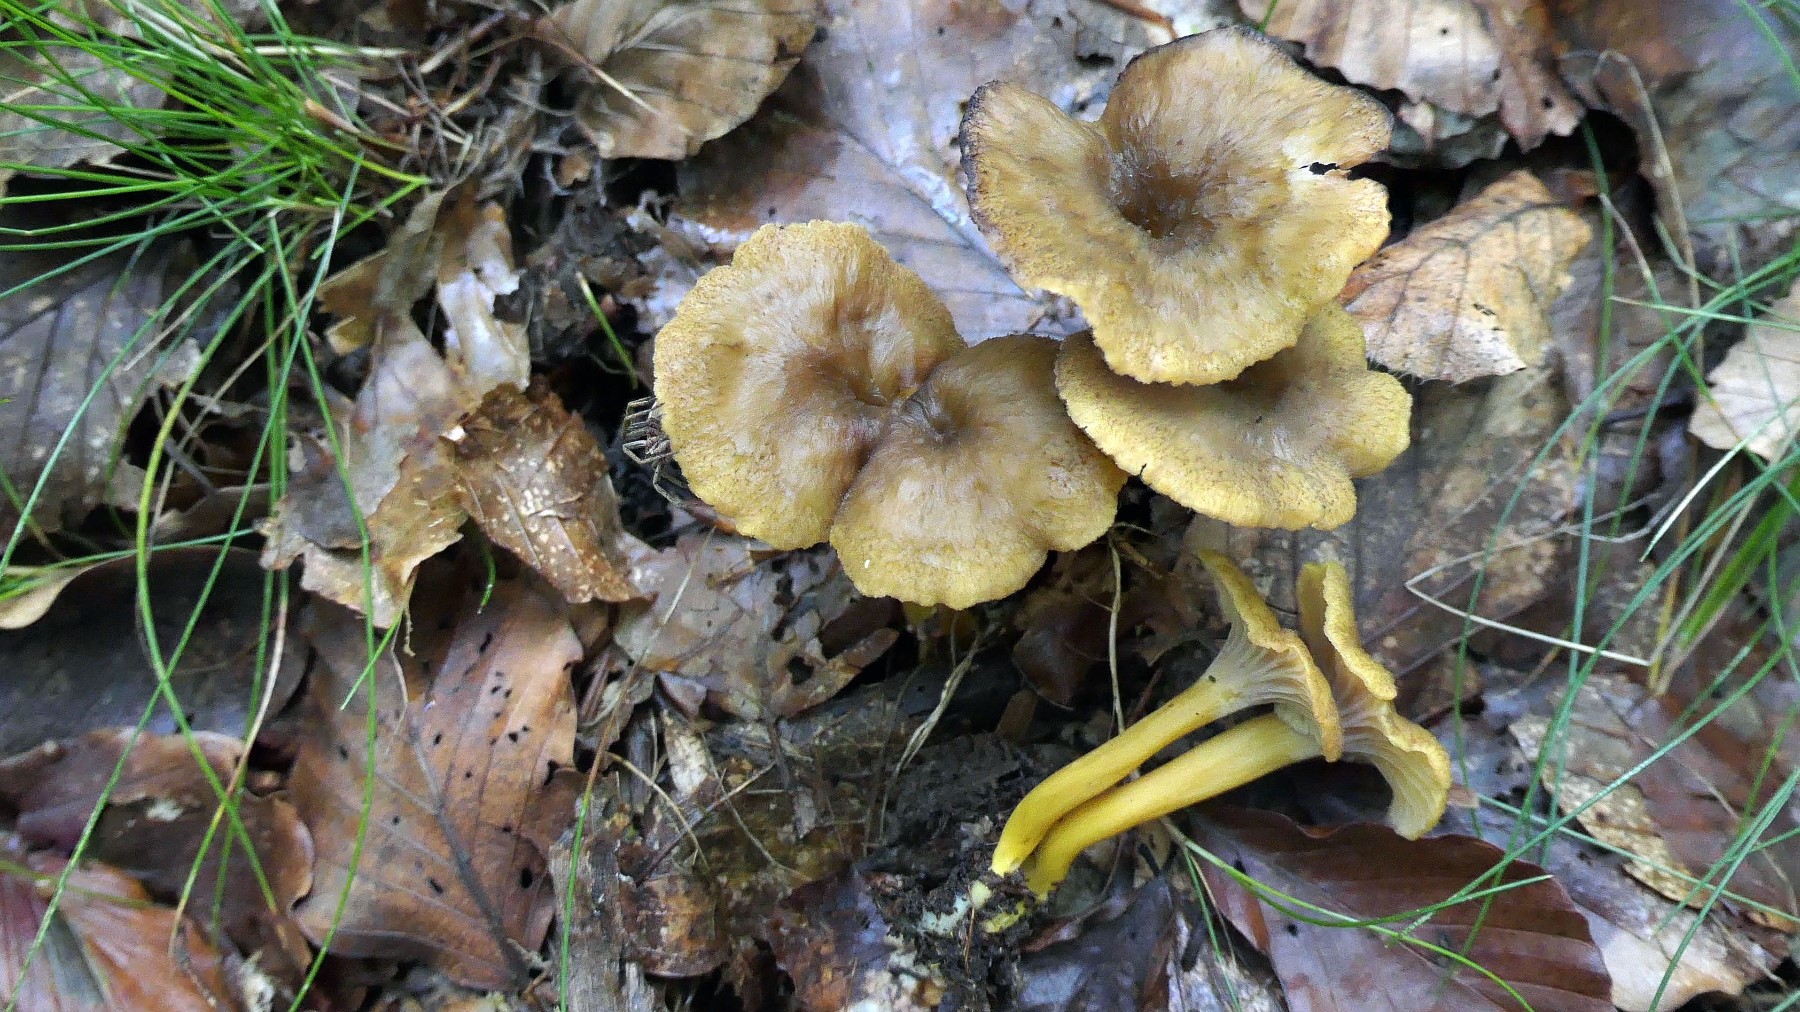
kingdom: Fungi
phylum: Basidiomycota
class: Agaricomycetes
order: Cantharellales
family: Hydnaceae
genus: Craterellus
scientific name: Craterellus tubaeformis
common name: tragt-kantarel
